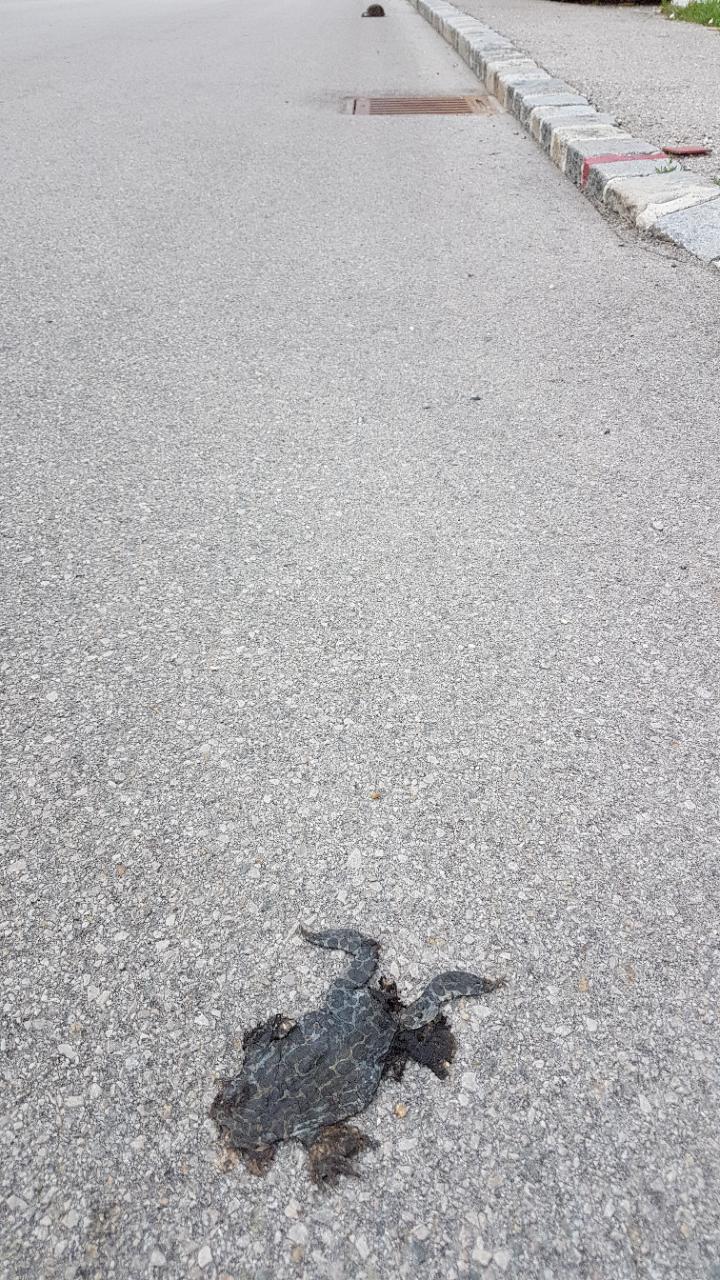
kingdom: Animalia
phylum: Chordata
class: Amphibia
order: Anura
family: Bufonidae
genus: Bufotes
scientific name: Bufotes viridis
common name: European green toad
